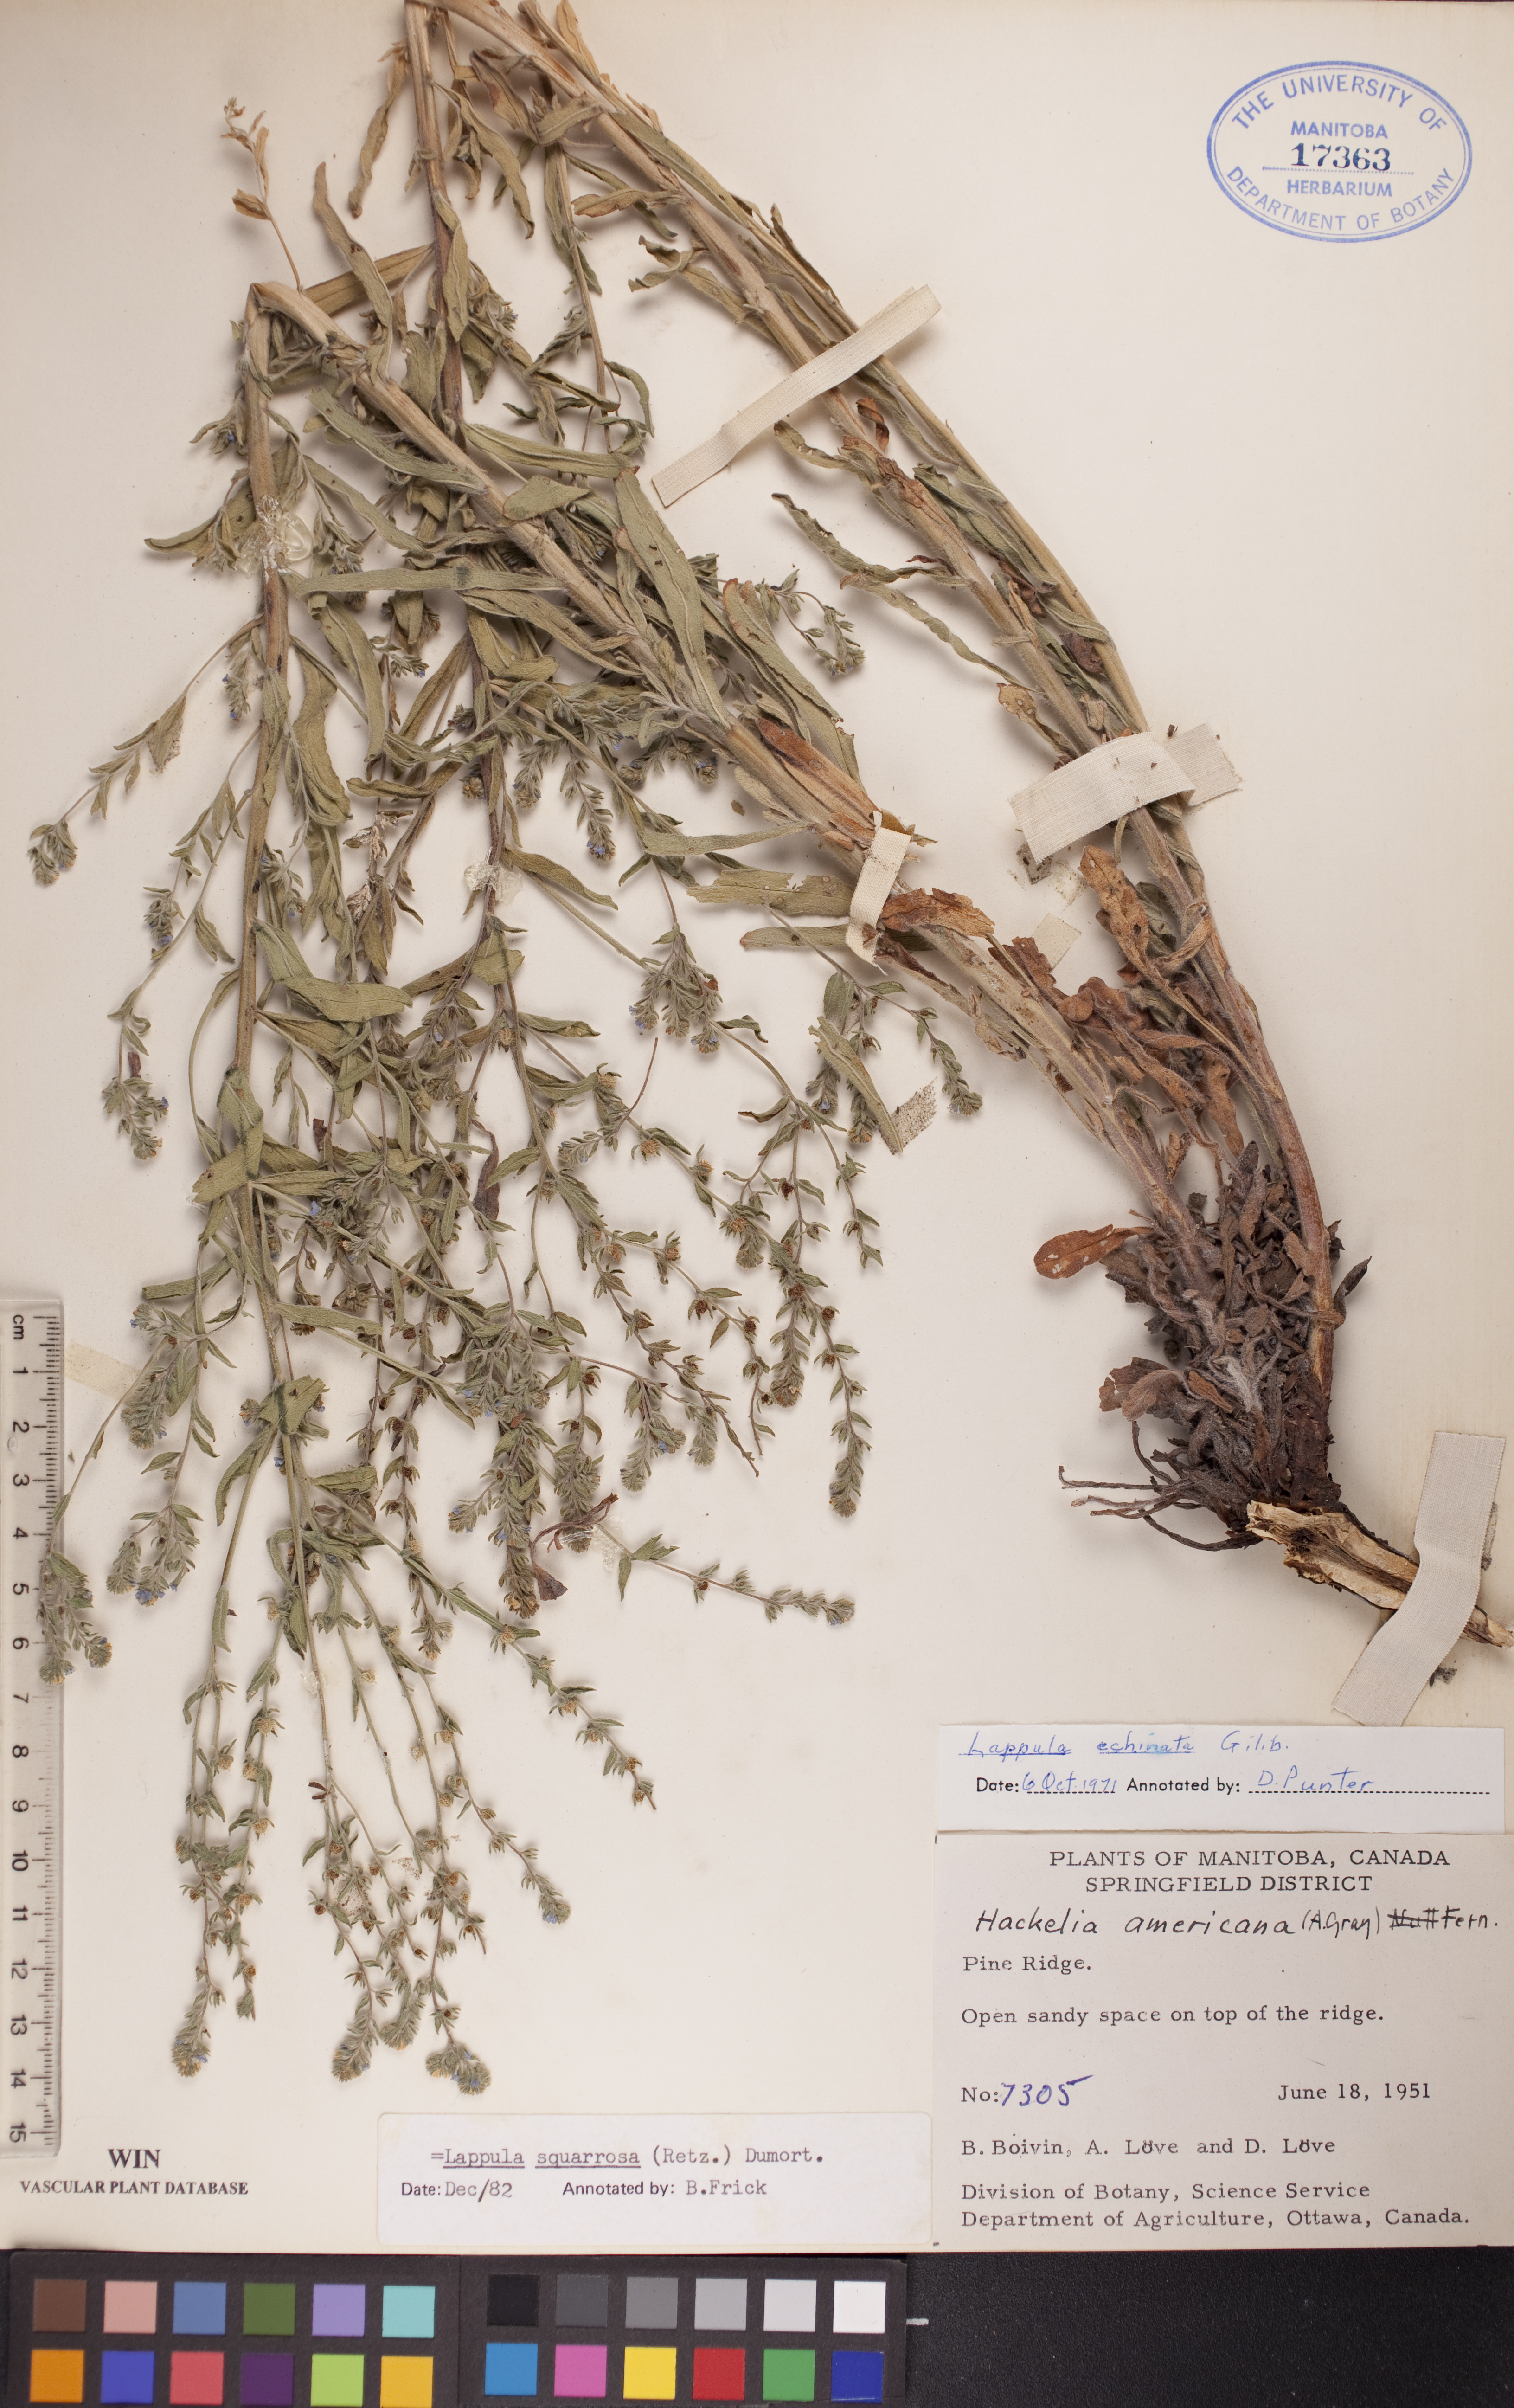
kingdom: Plantae
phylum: Tracheophyta
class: Magnoliopsida
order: Boraginales
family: Boraginaceae
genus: Lappula
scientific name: Lappula squarrosa
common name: European stickseed
